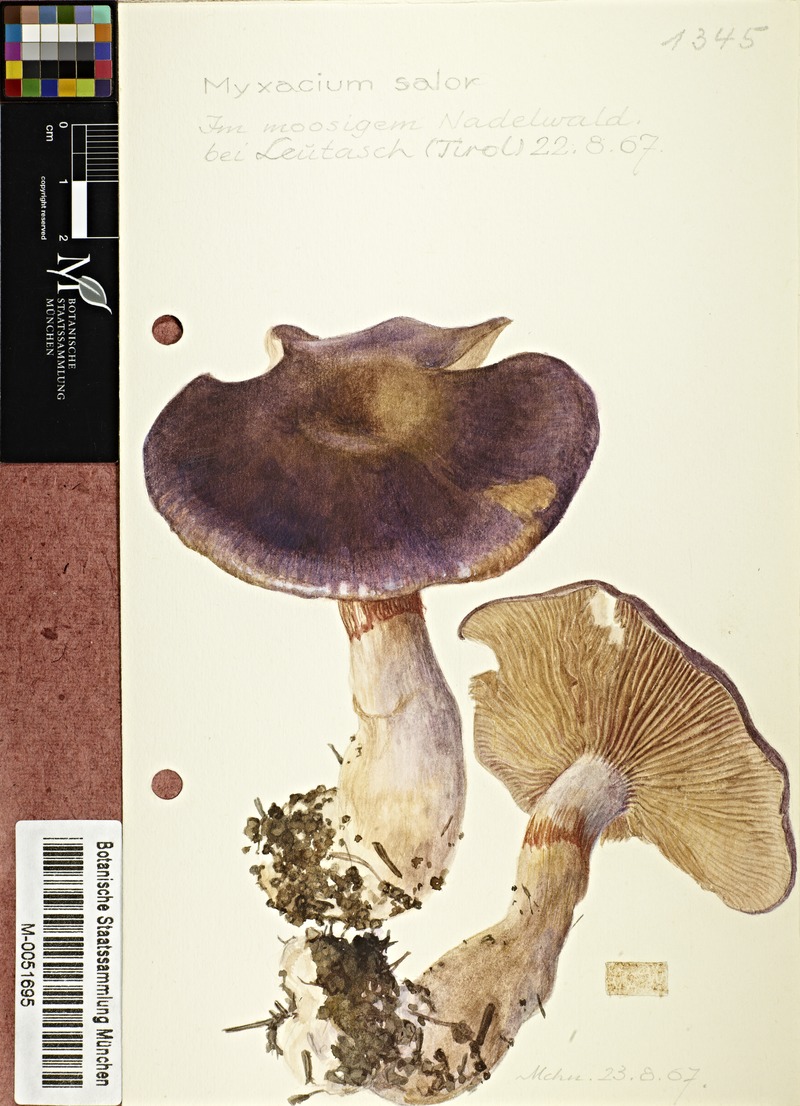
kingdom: Fungi
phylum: Basidiomycota
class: Agaricomycetes
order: Agaricales
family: Cortinariaceae
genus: Cortinarius
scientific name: Cortinarius salor
